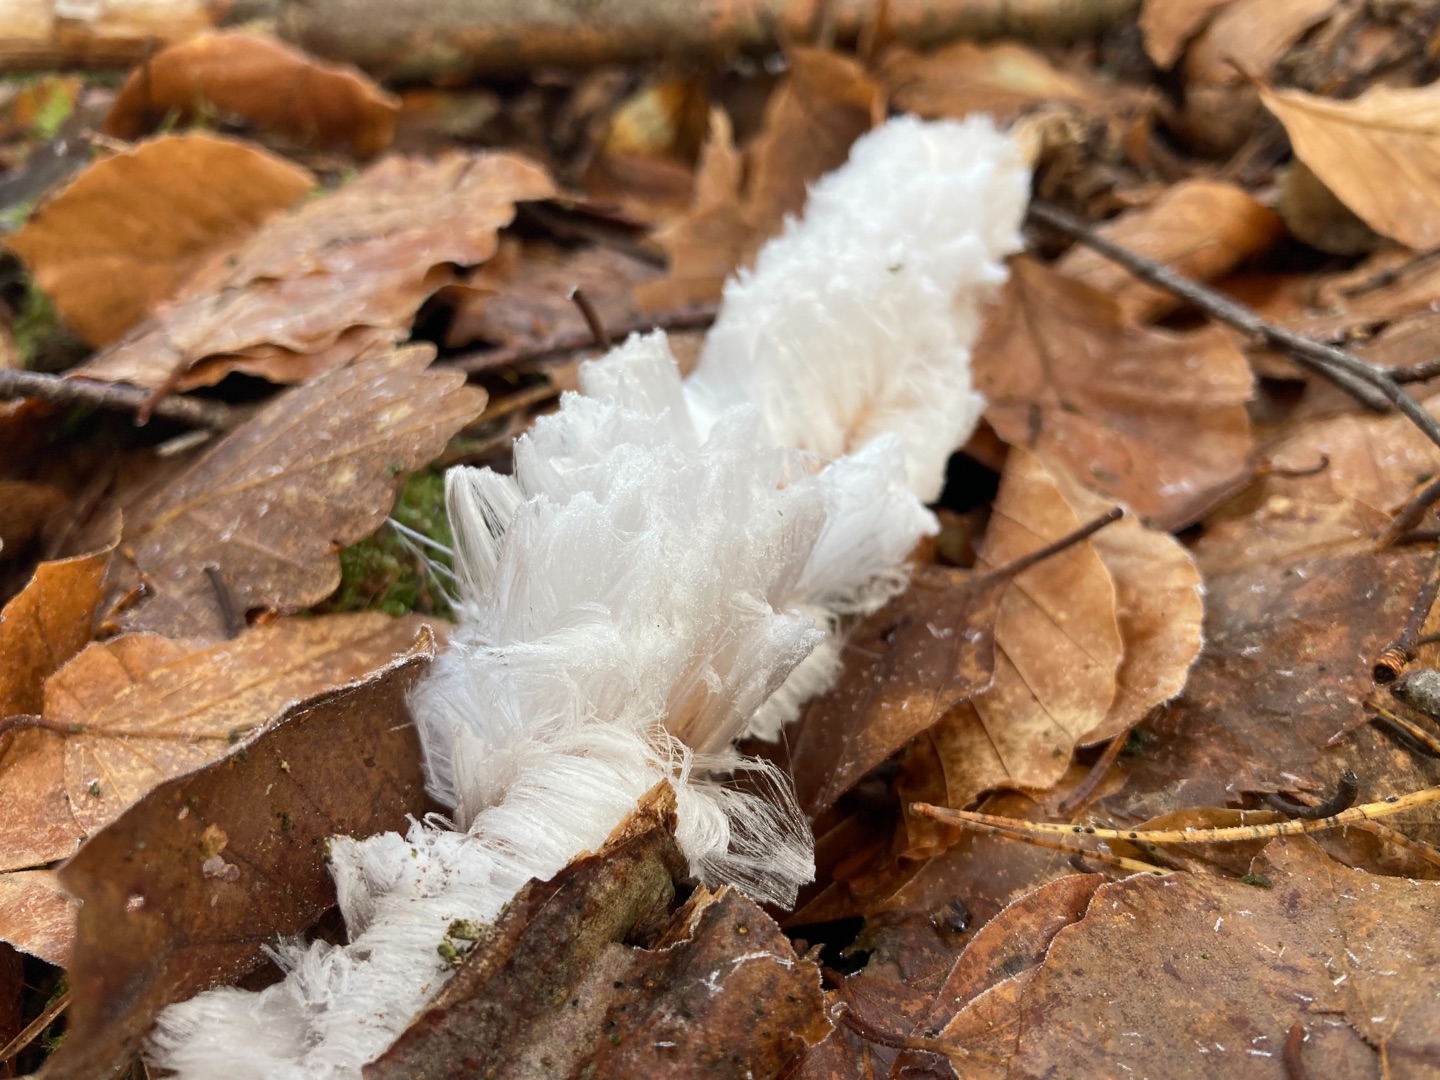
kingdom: Fungi
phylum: Basidiomycota
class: Tremellomycetes
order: Tremellales
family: Exidiaceae
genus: Exidiopsis
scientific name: Exidiopsis effusa
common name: Smuk bævrehinde
